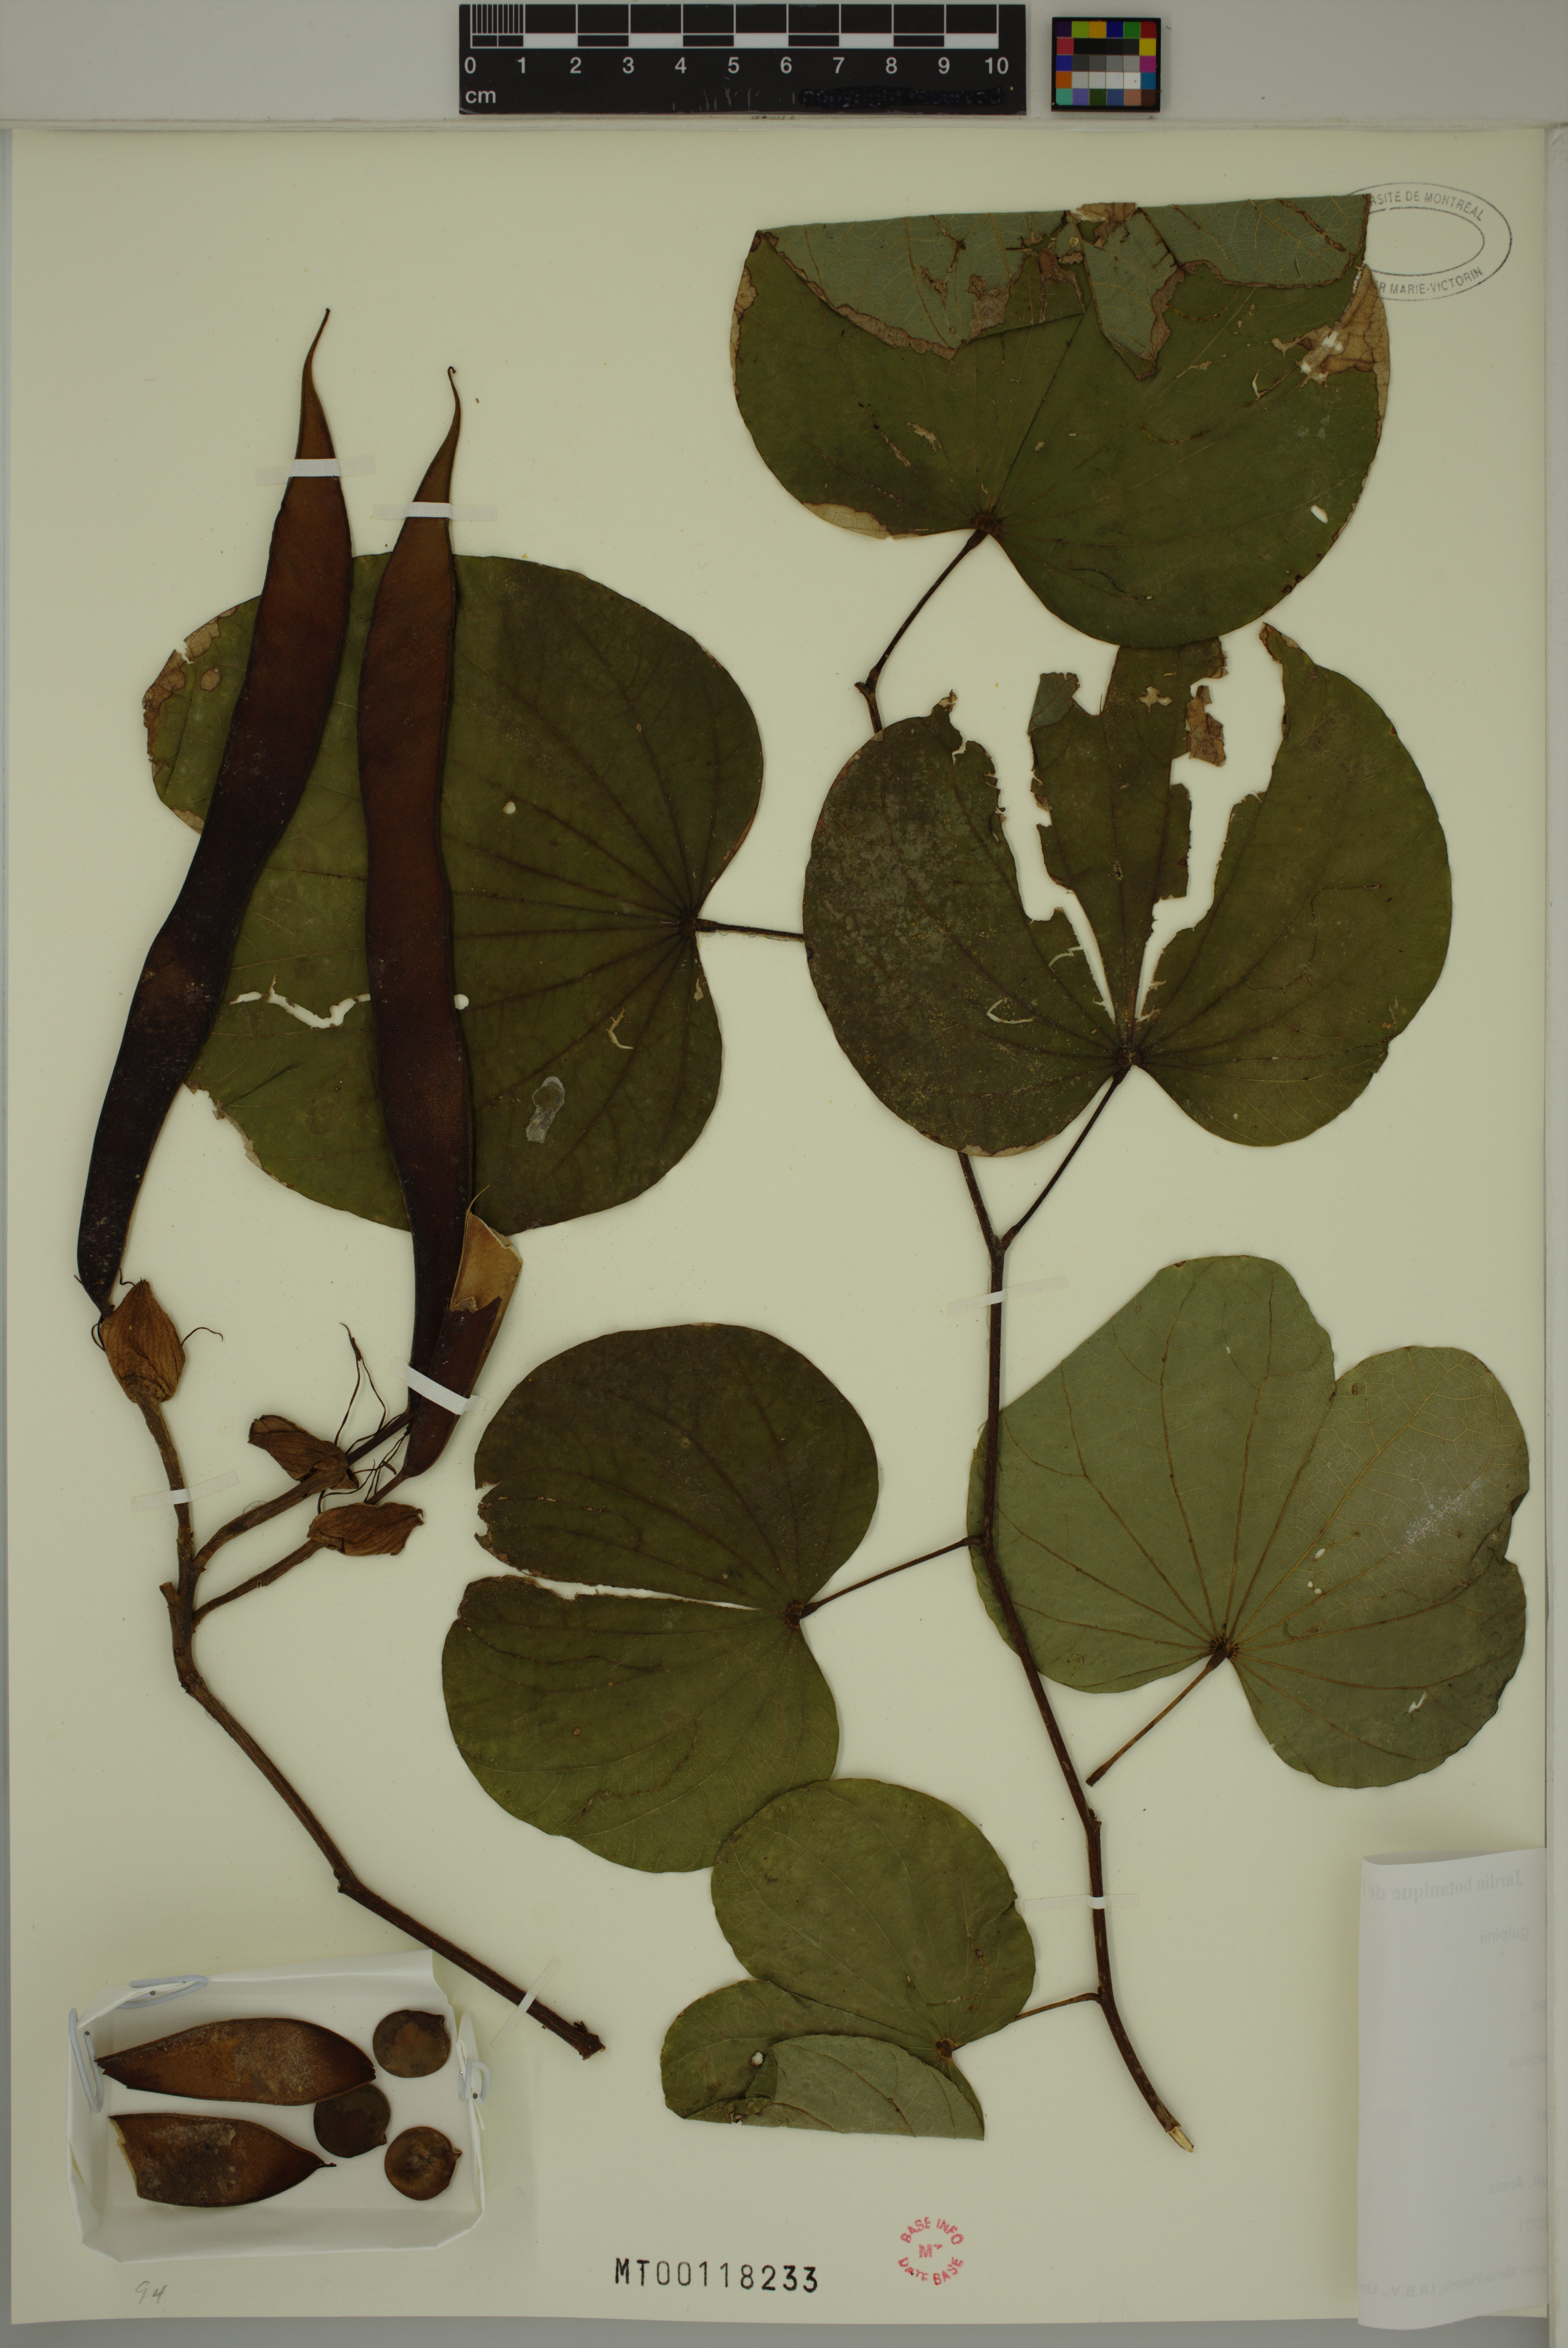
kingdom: Plantae
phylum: Tracheophyta
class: Magnoliopsida
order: Fabales
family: Fabaceae
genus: Bauhinia
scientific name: Bauhinia galpinii
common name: African plume
